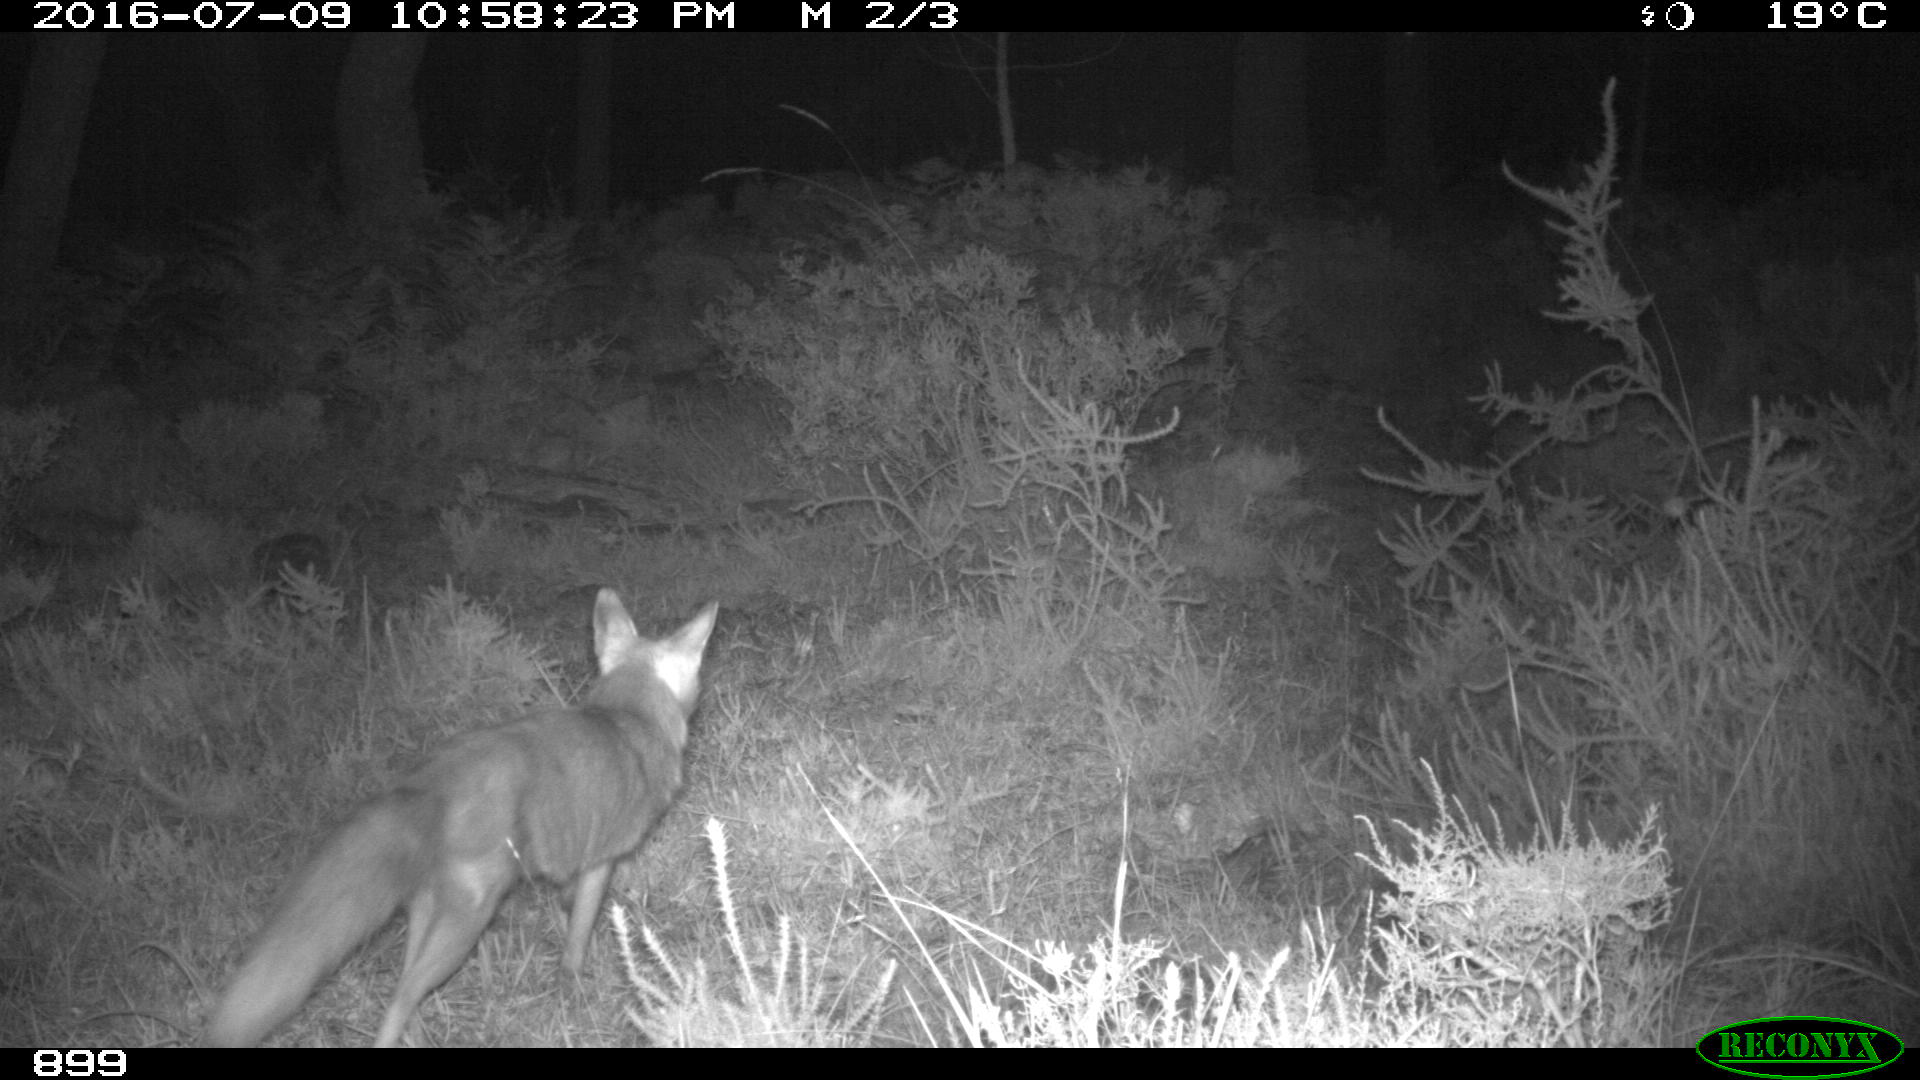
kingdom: Animalia
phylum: Chordata
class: Mammalia
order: Carnivora
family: Canidae
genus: Vulpes
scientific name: Vulpes vulpes
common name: Red fox
